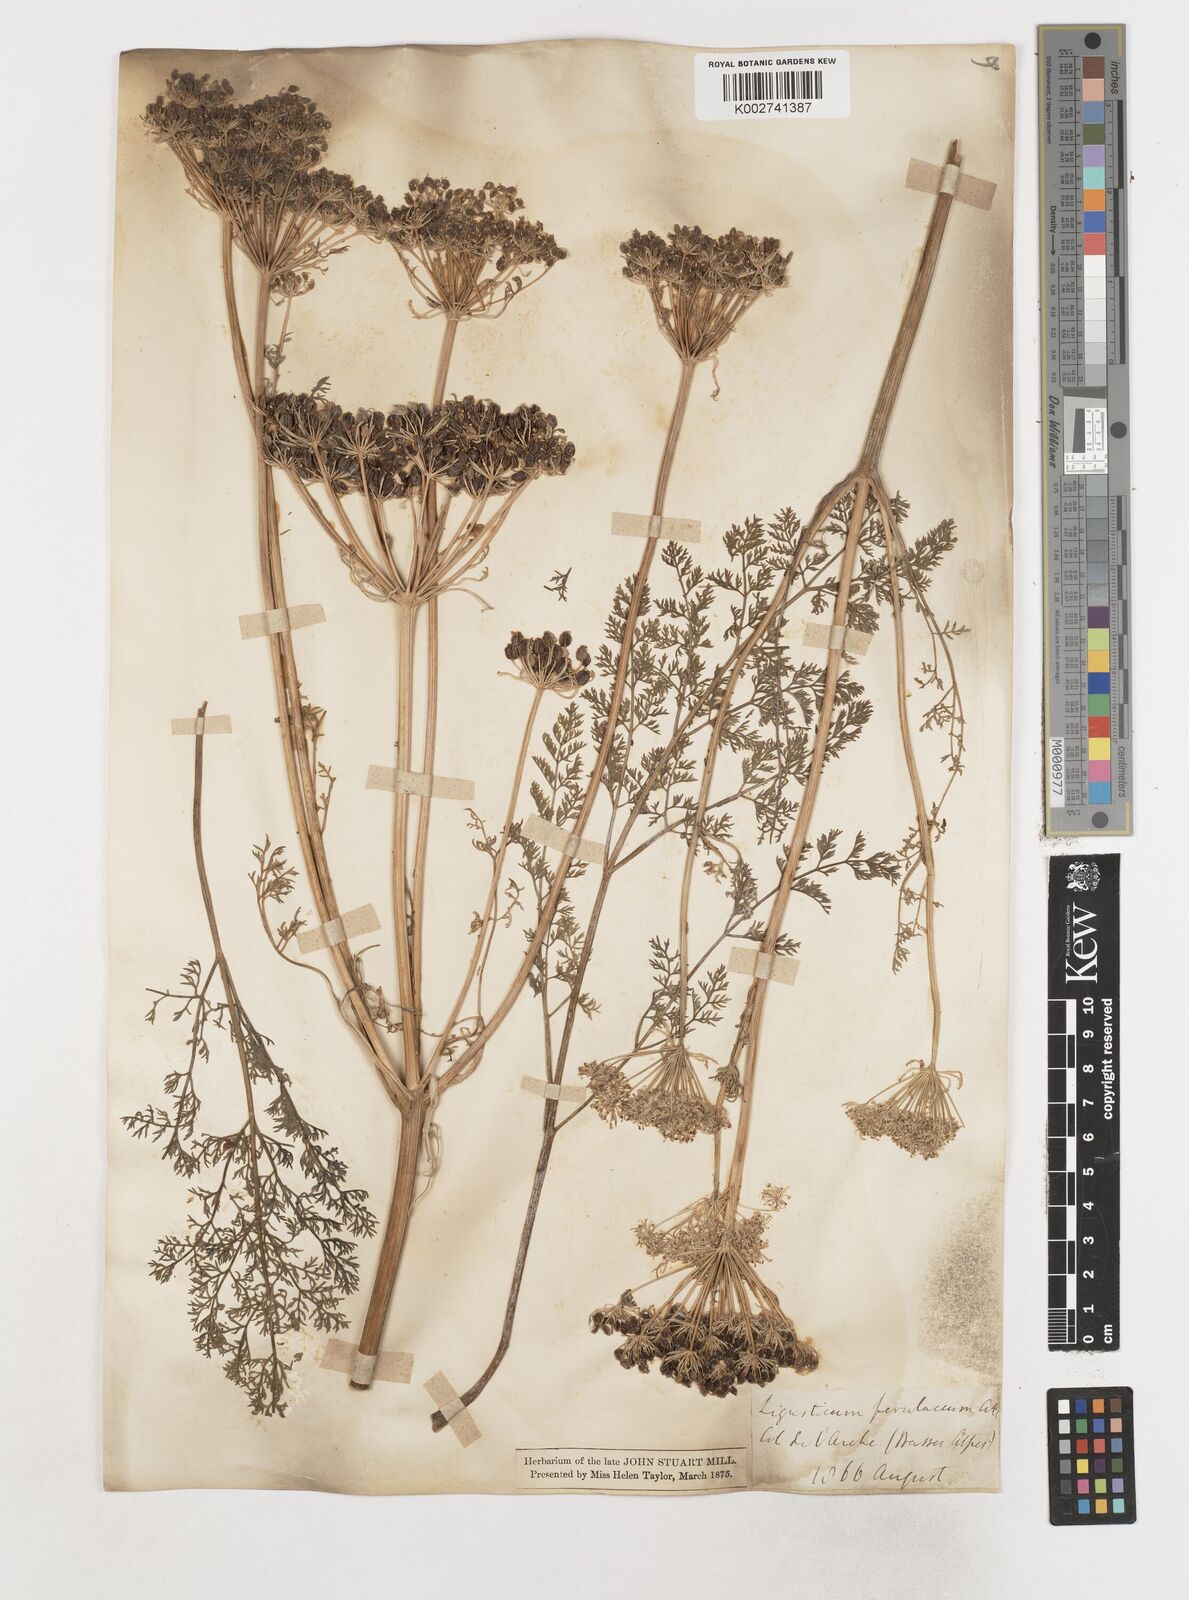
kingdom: Plantae
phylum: Tracheophyta
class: Magnoliopsida
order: Apiales
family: Apiaceae
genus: Coristospermum
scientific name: Coristospermum ferulaceum
